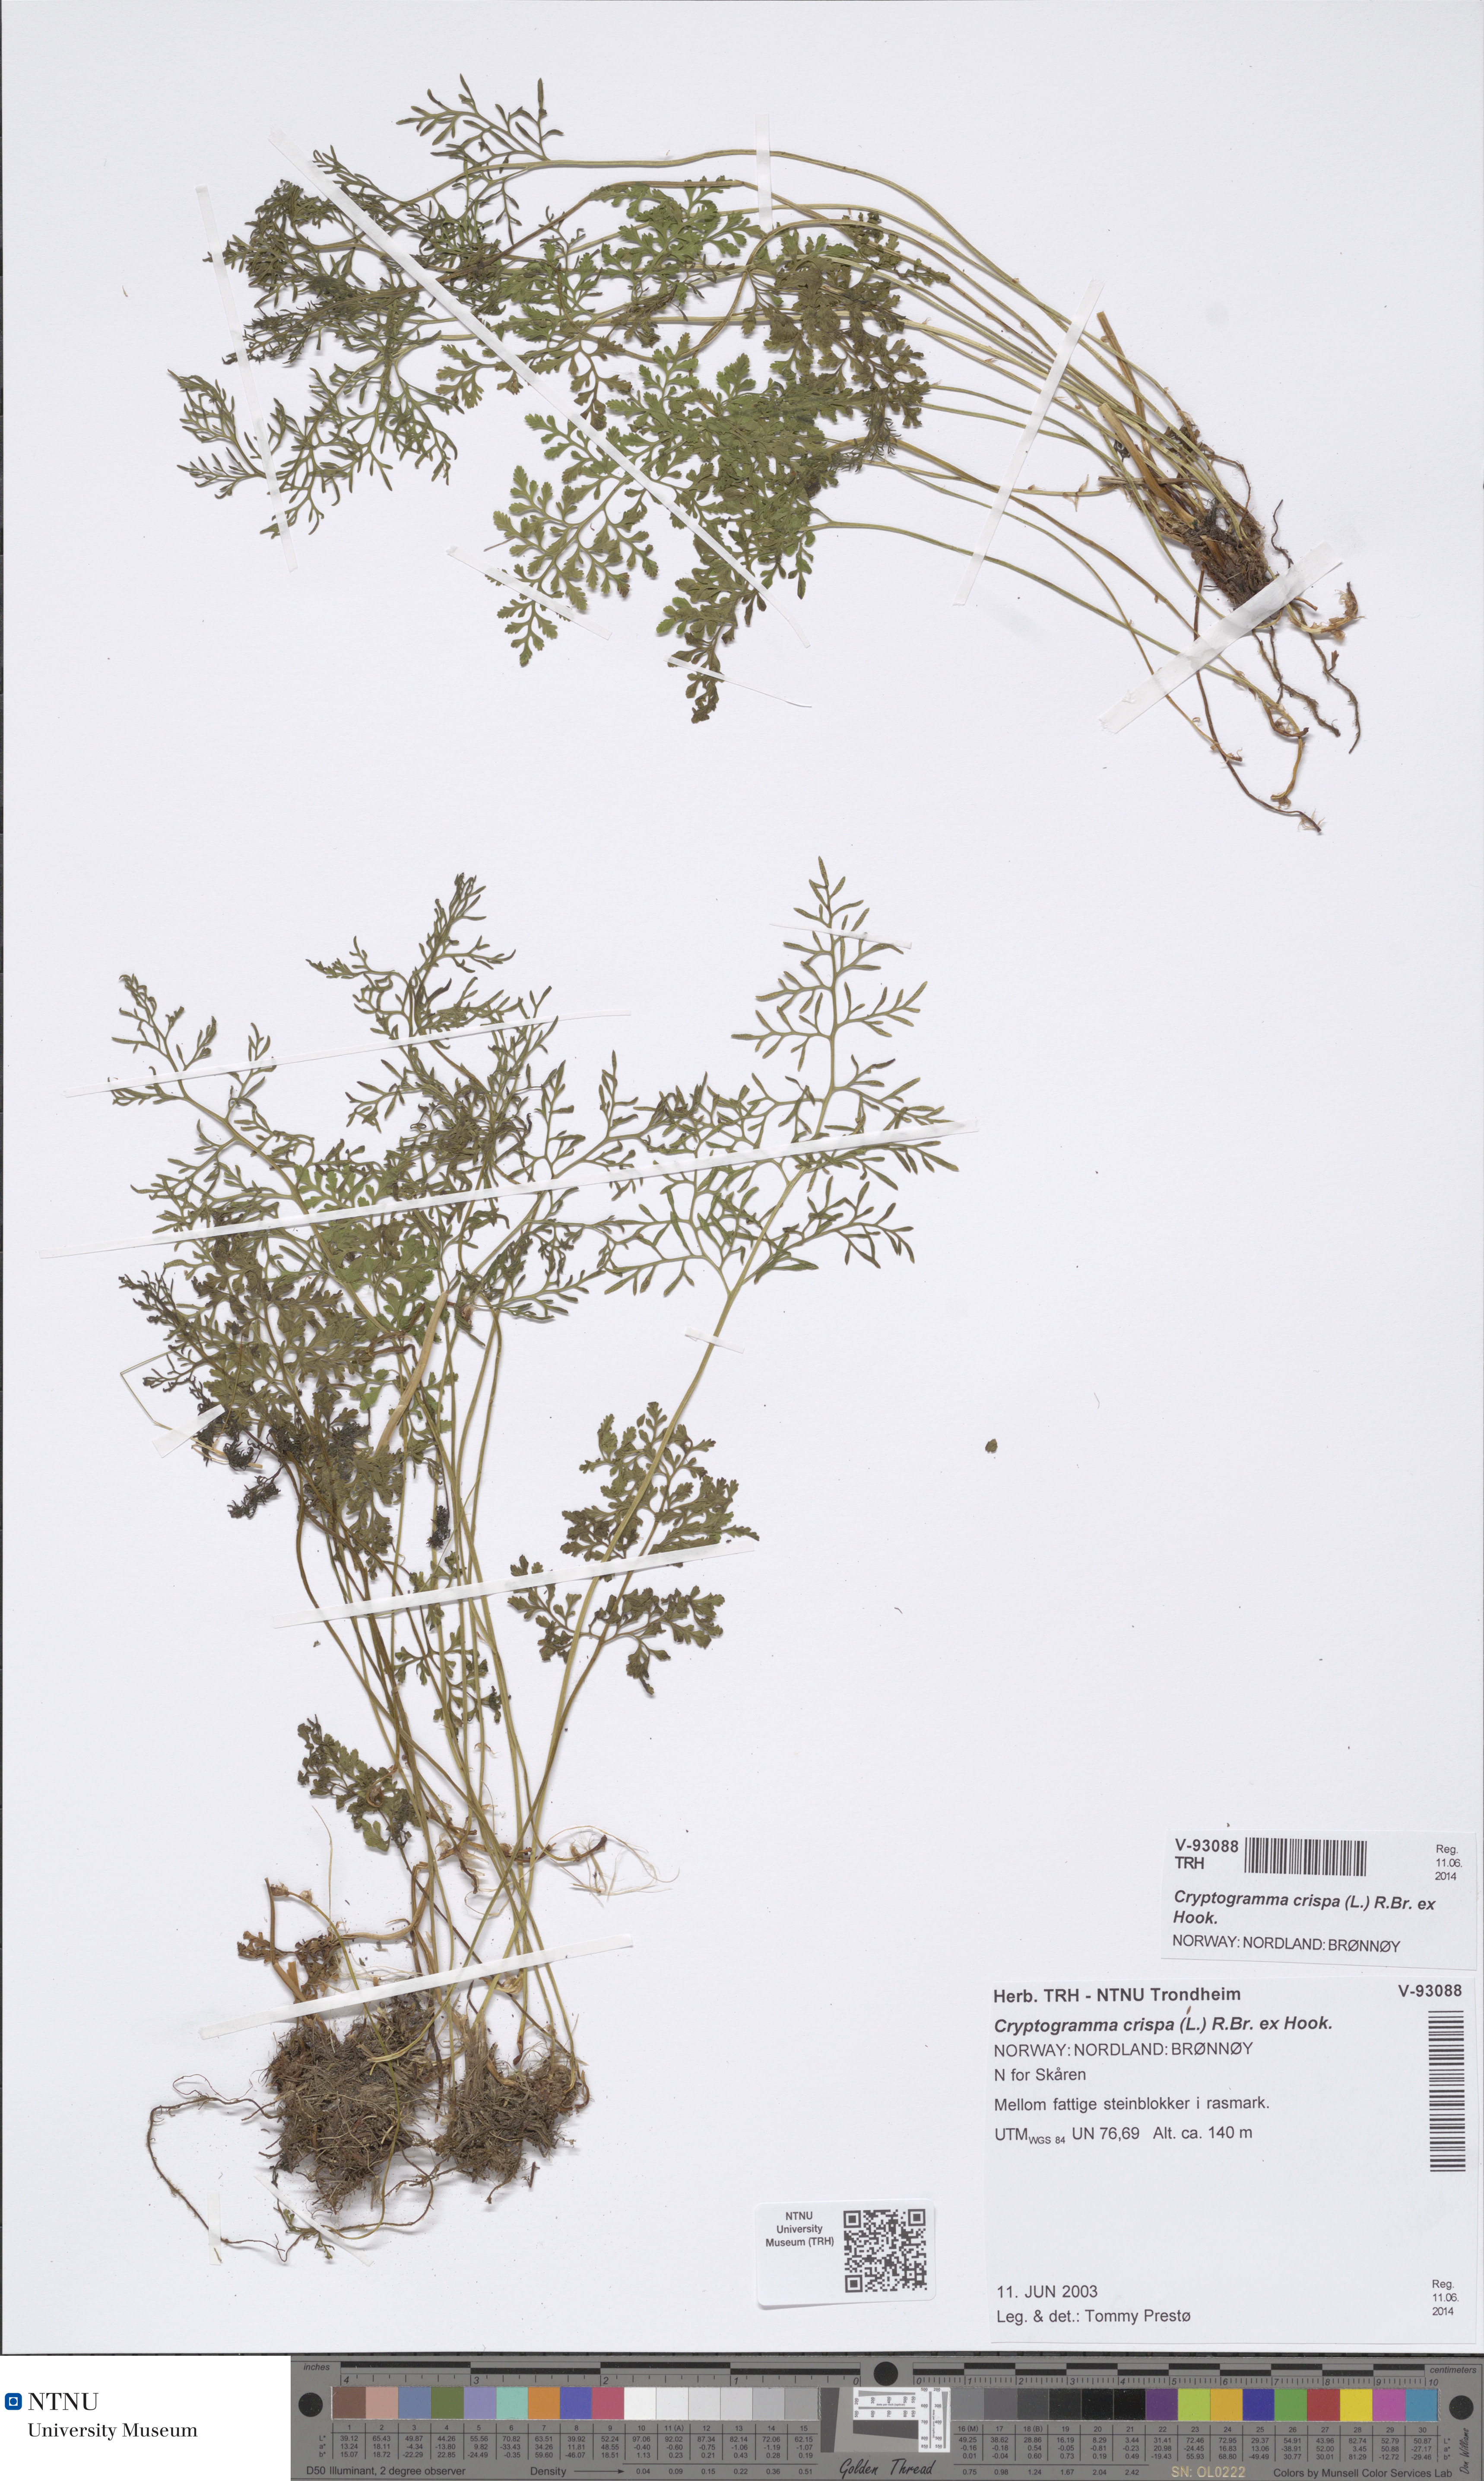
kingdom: Plantae
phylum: Tracheophyta
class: Polypodiopsida
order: Polypodiales
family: Pteridaceae
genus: Cryptogramma
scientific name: Cryptogramma crispa
